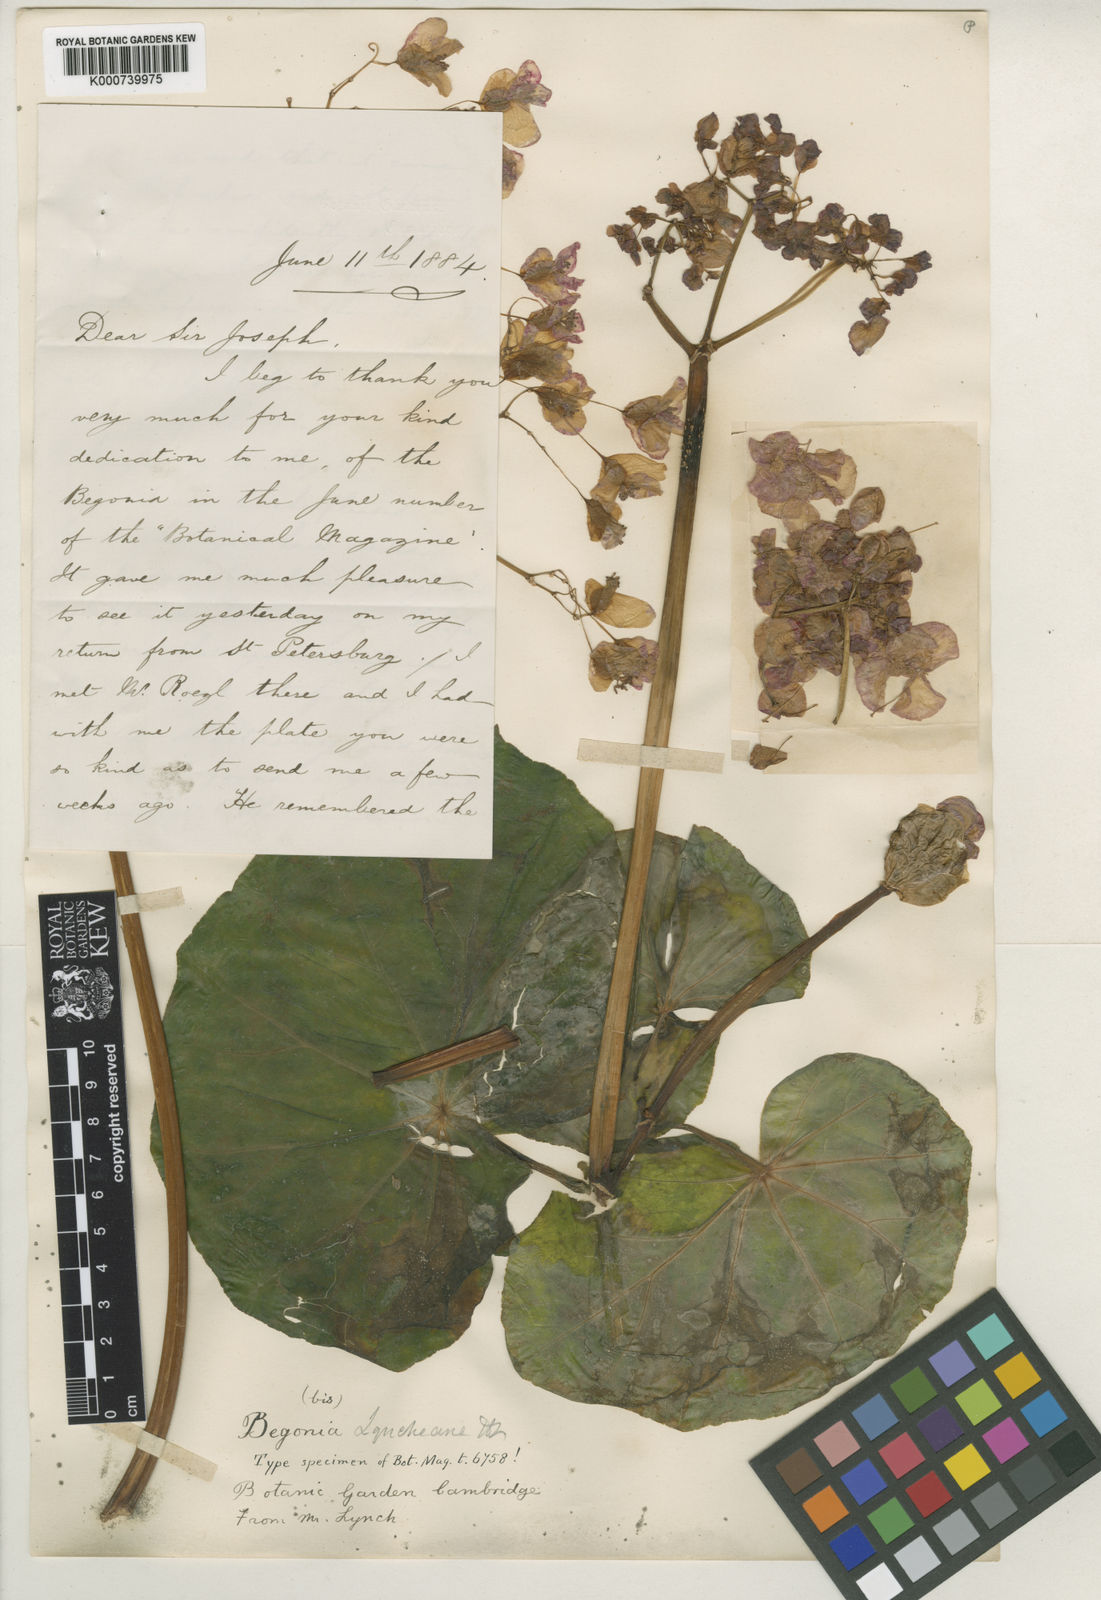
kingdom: Plantae
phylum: Tracheophyta
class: Magnoliopsida
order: Cucurbitales
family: Begoniaceae
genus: Begonia
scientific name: Begonia
